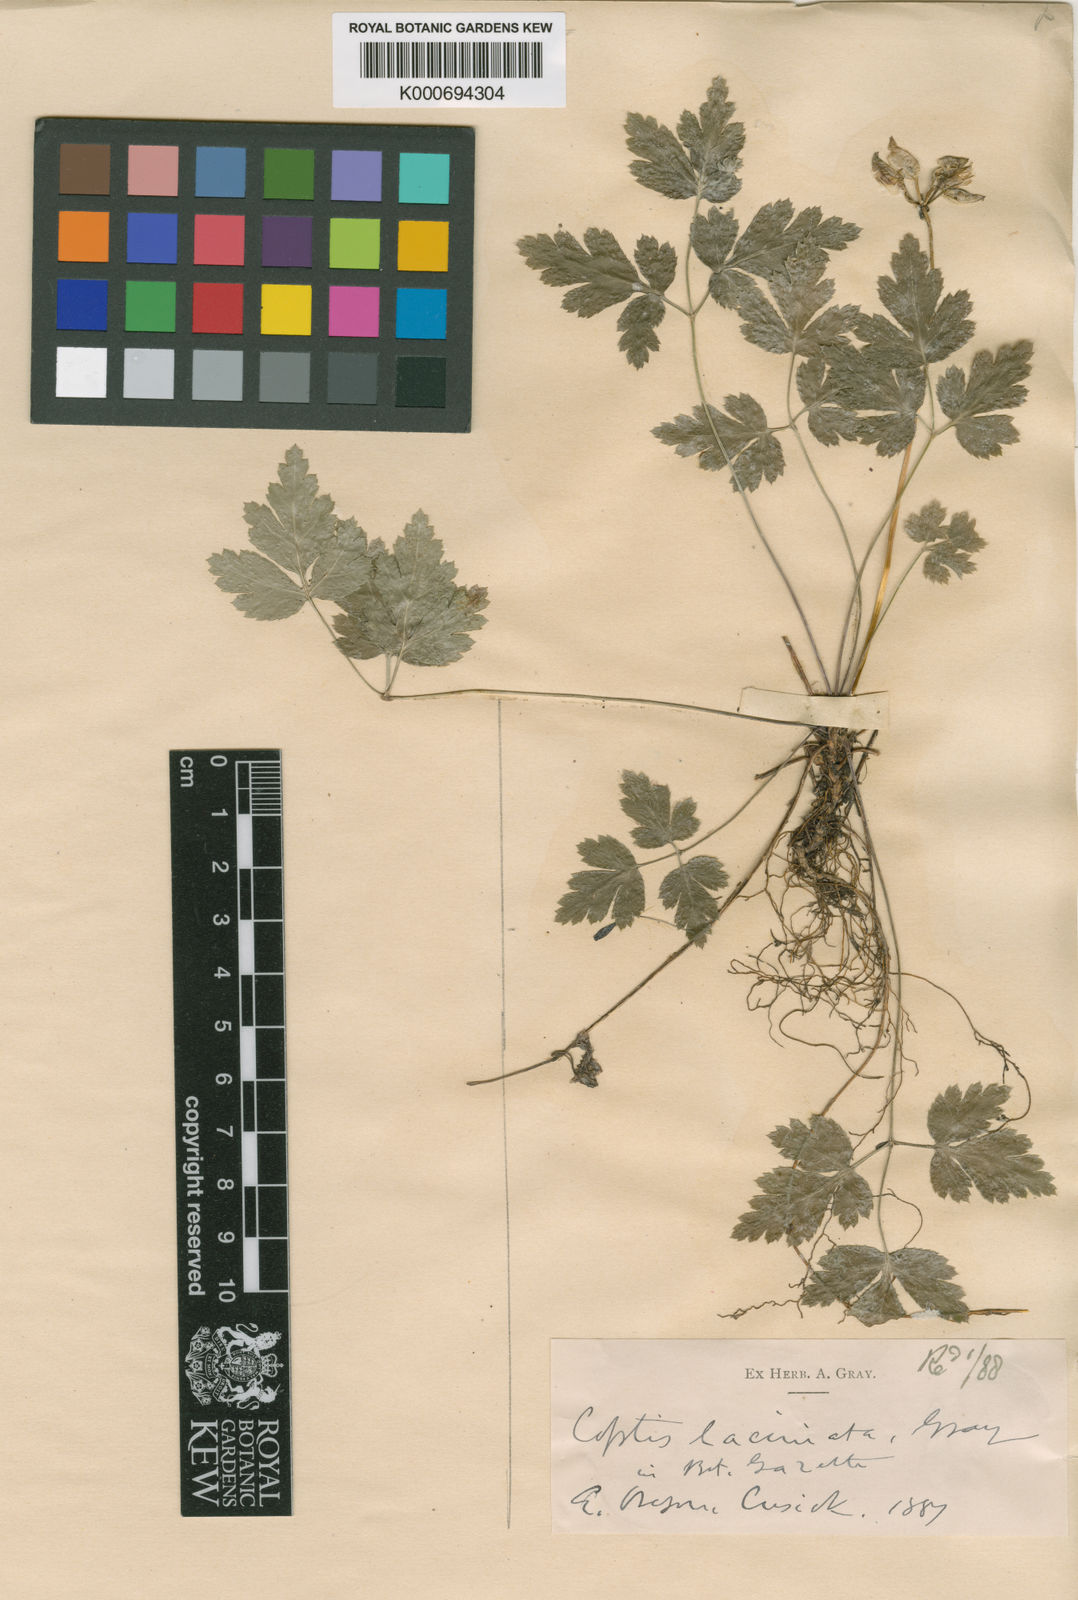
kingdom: Plantae
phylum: Tracheophyta
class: Magnoliopsida
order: Ranunculales
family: Ranunculaceae
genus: Coptis
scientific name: Coptis laciniata
